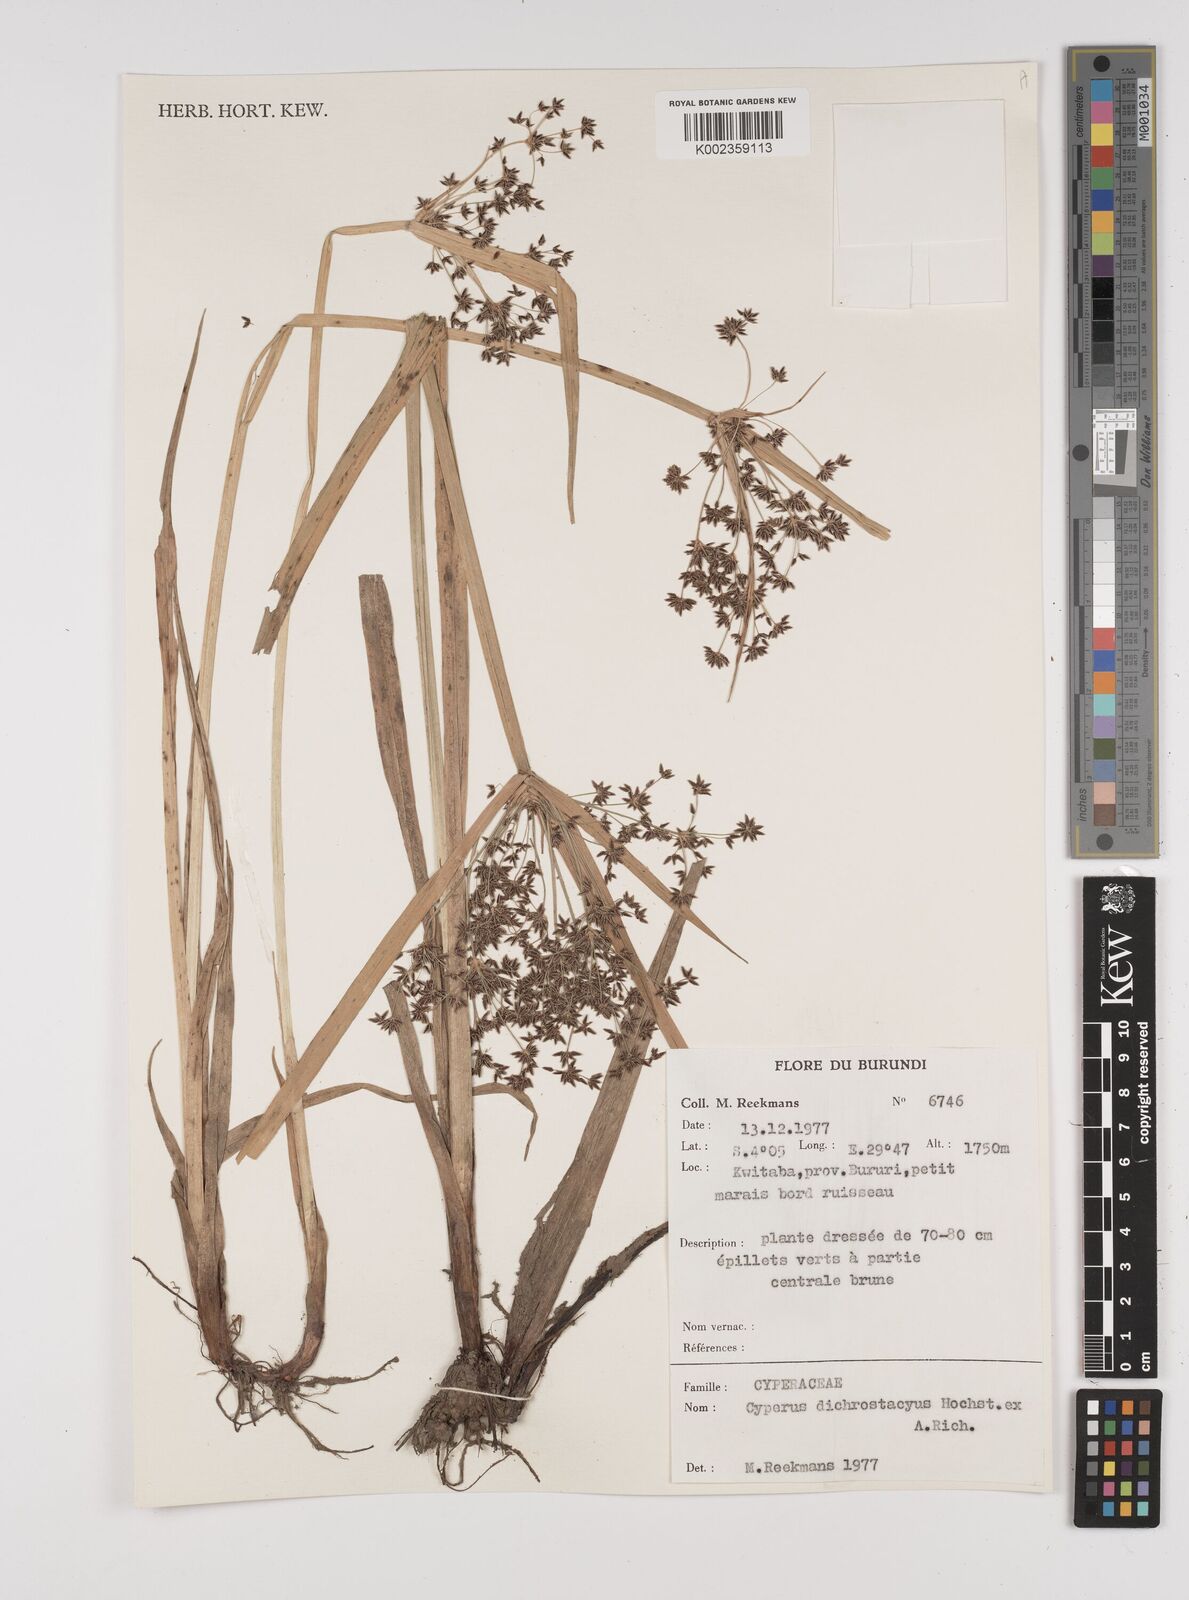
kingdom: Plantae
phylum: Tracheophyta
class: Liliopsida
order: Poales
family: Cyperaceae
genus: Cyperus
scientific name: Cyperus dichrostachyus
